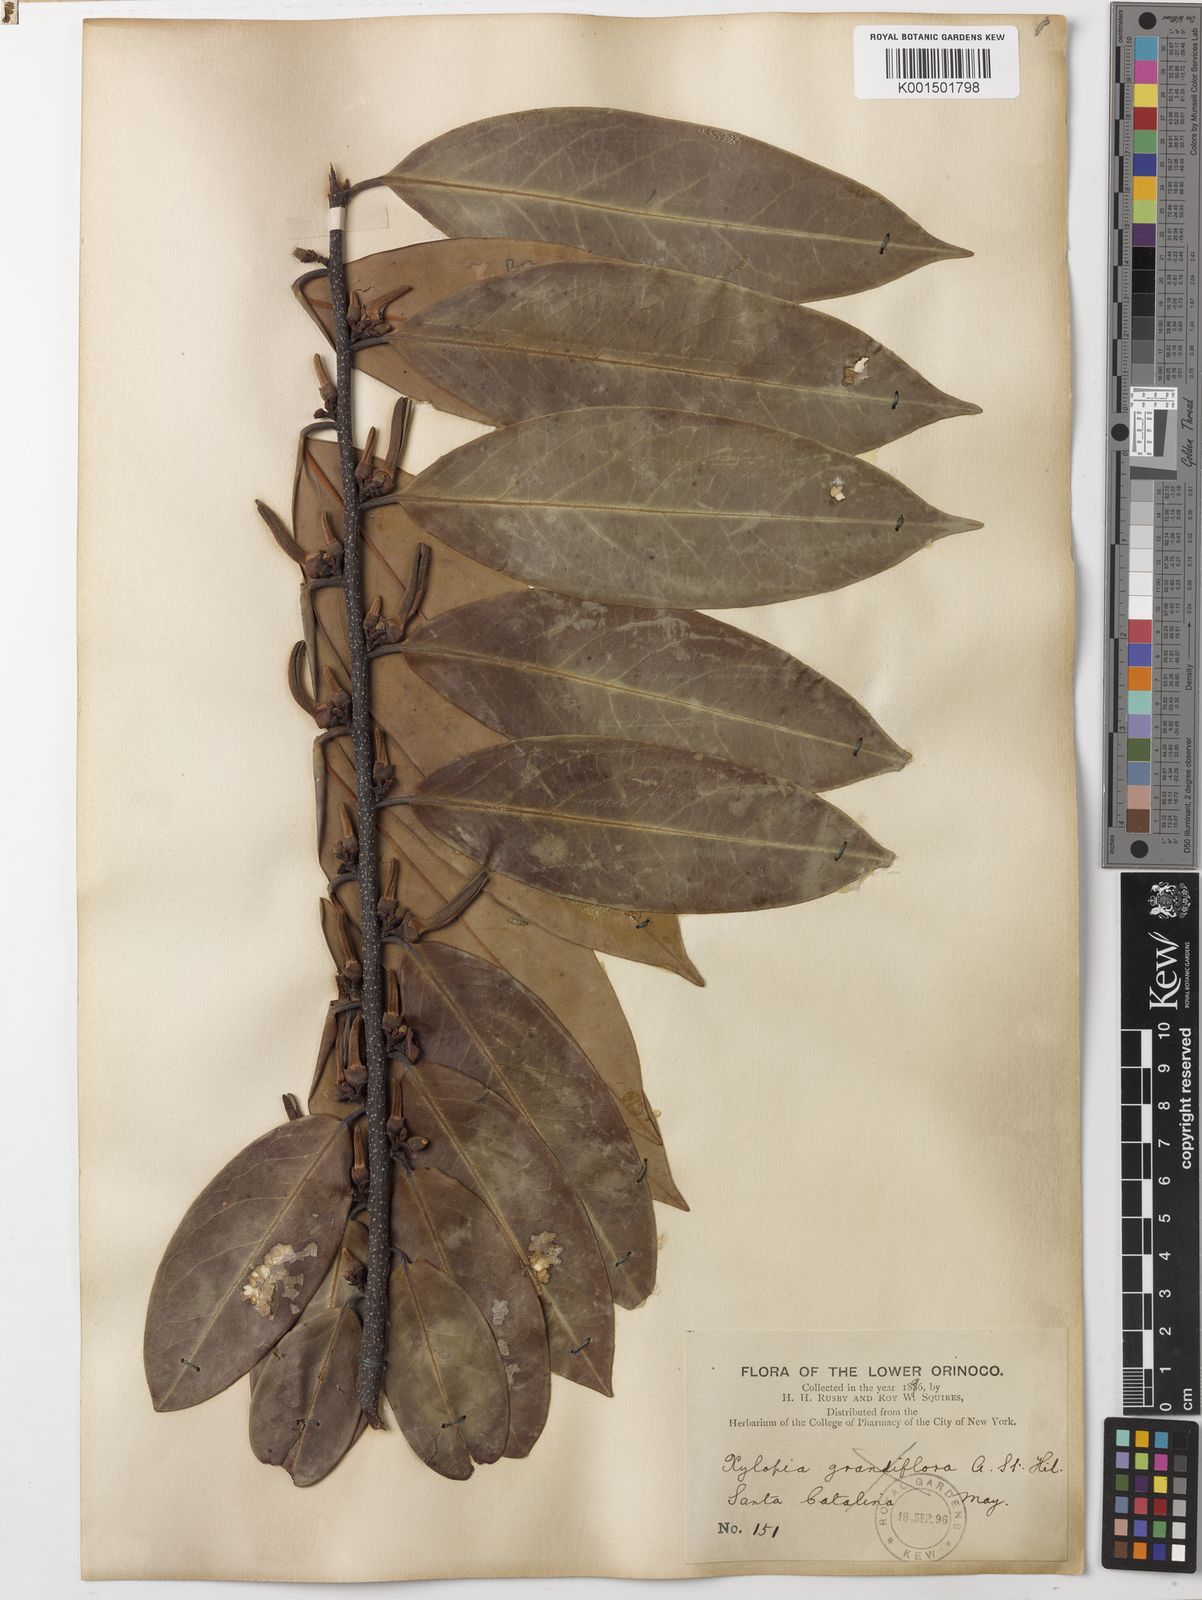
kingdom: Plantae
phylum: Tracheophyta
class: Magnoliopsida
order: Magnoliales
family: Annonaceae
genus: Xylopia
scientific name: Xylopia aromatica
